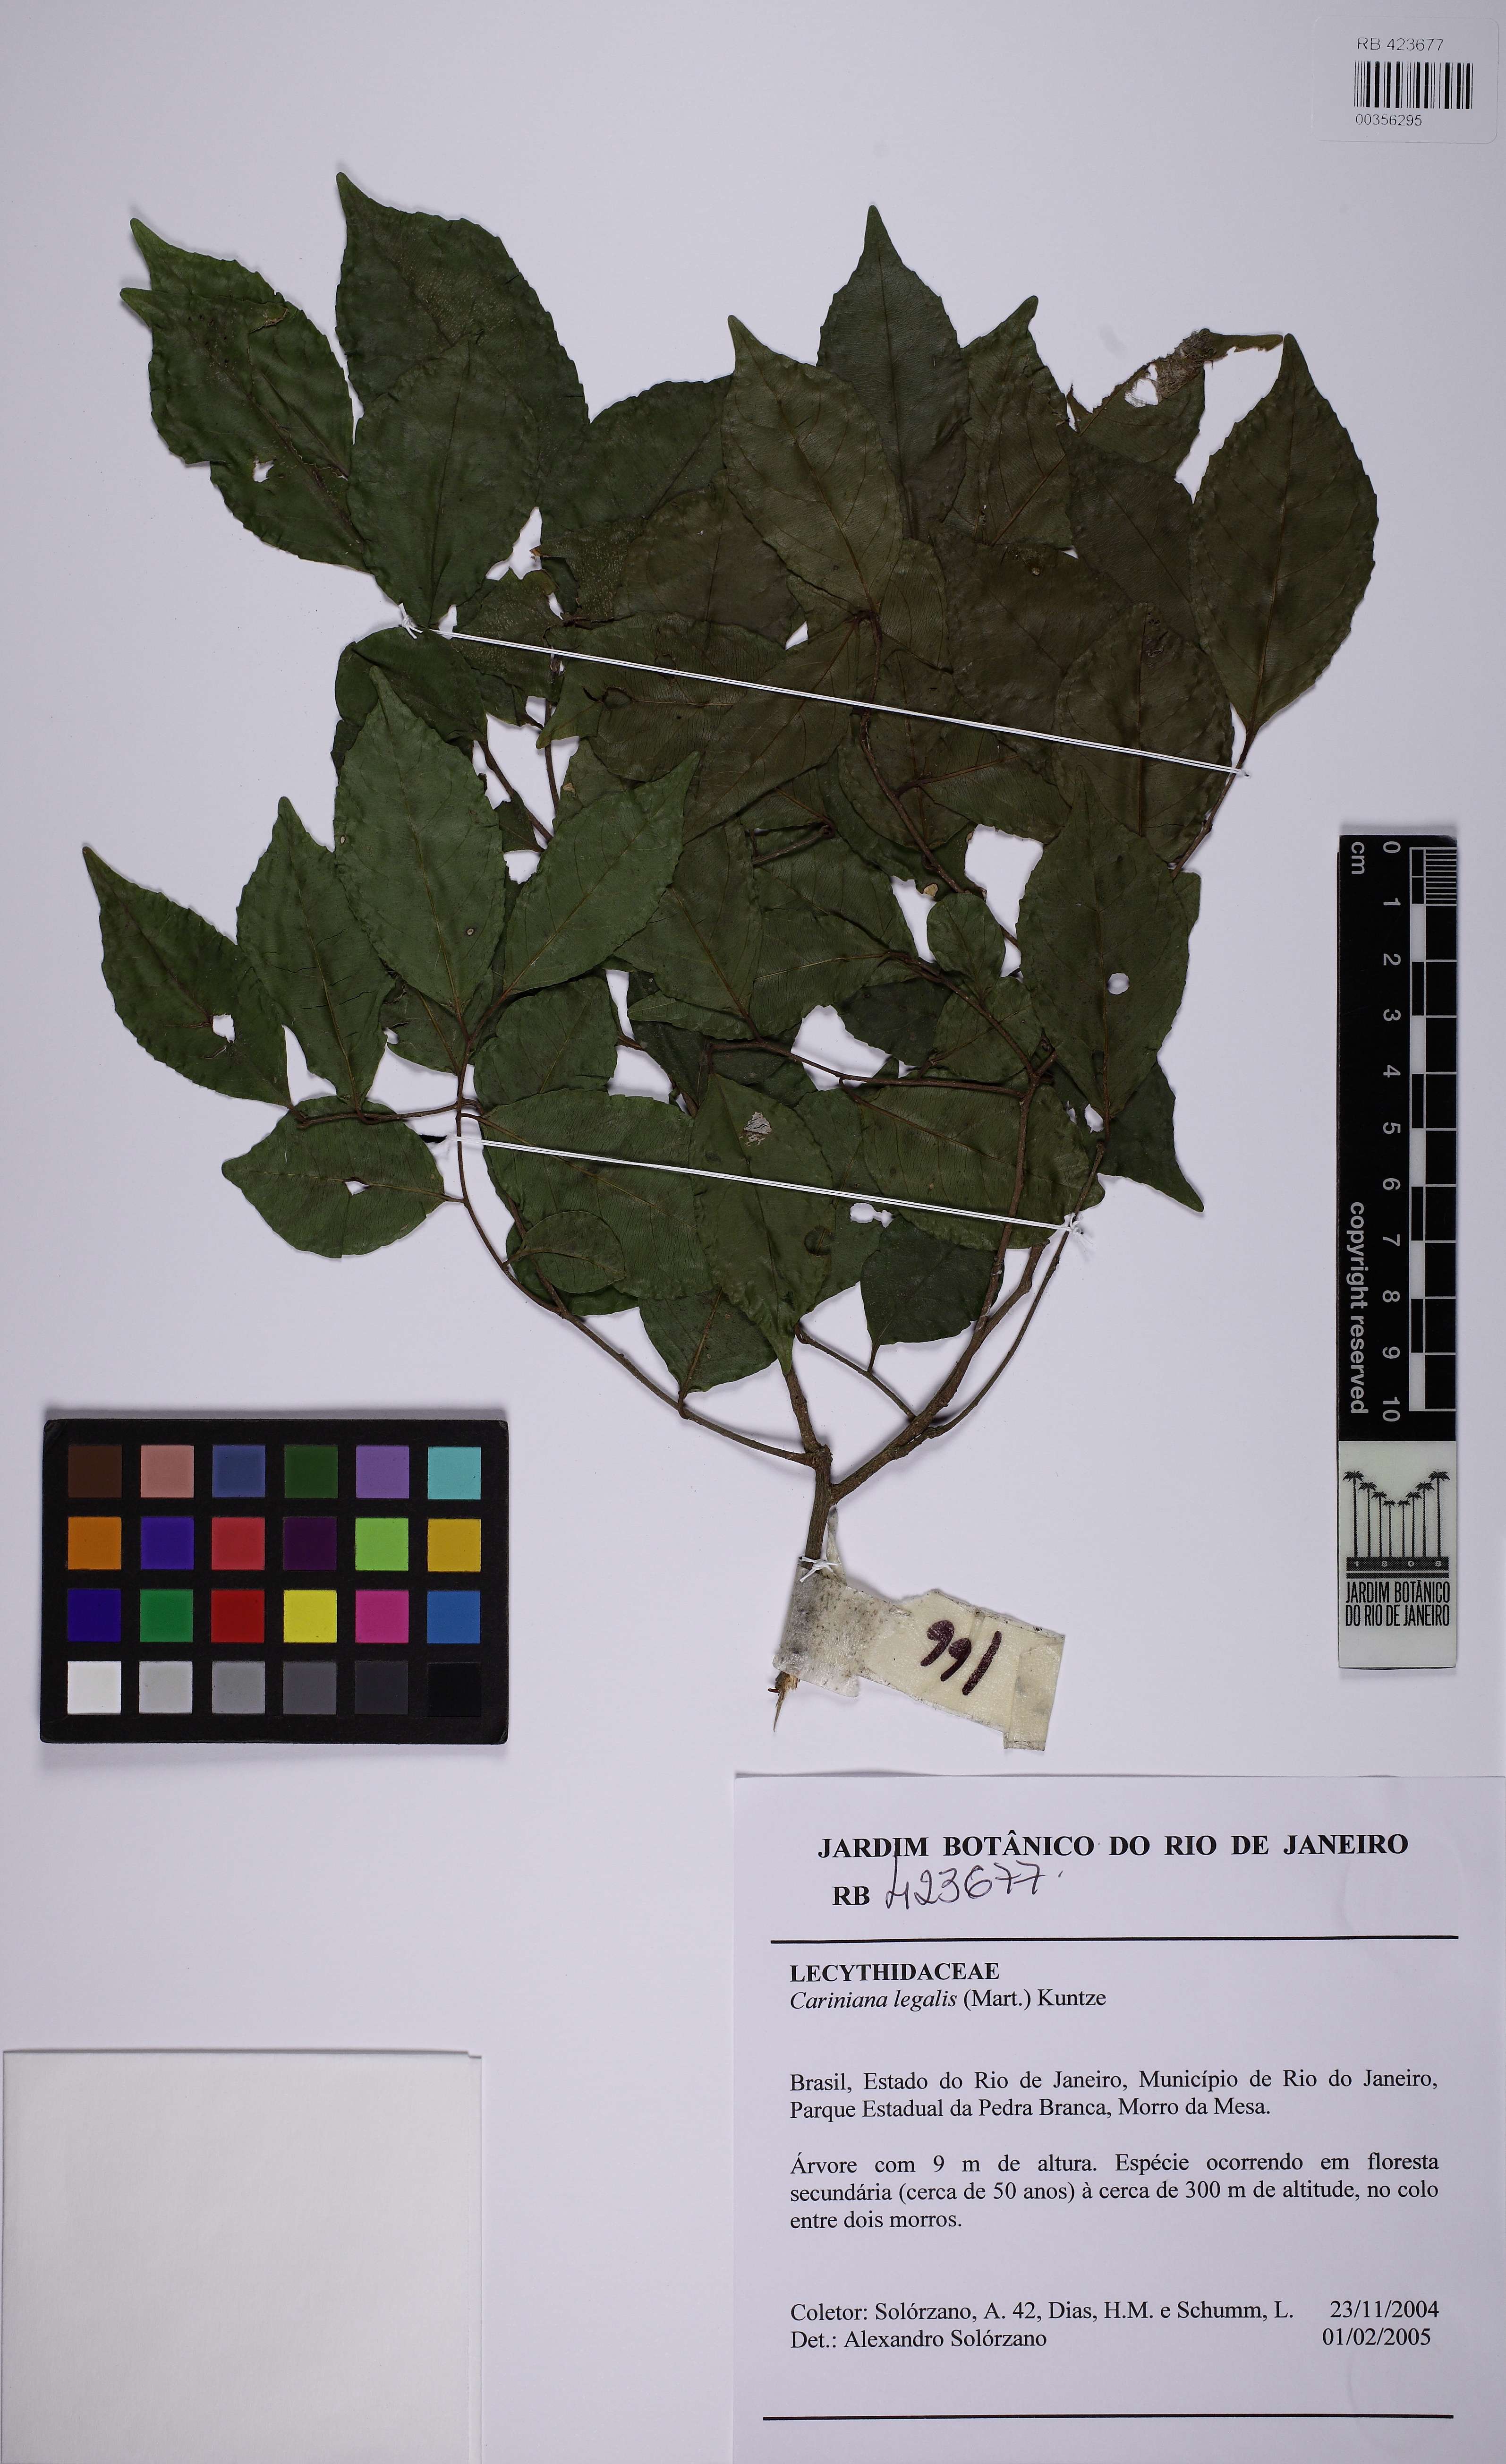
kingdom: Plantae
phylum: Tracheophyta
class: Magnoliopsida
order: Ericales
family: Lecythidaceae
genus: Cariniana
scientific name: Cariniana legalis
